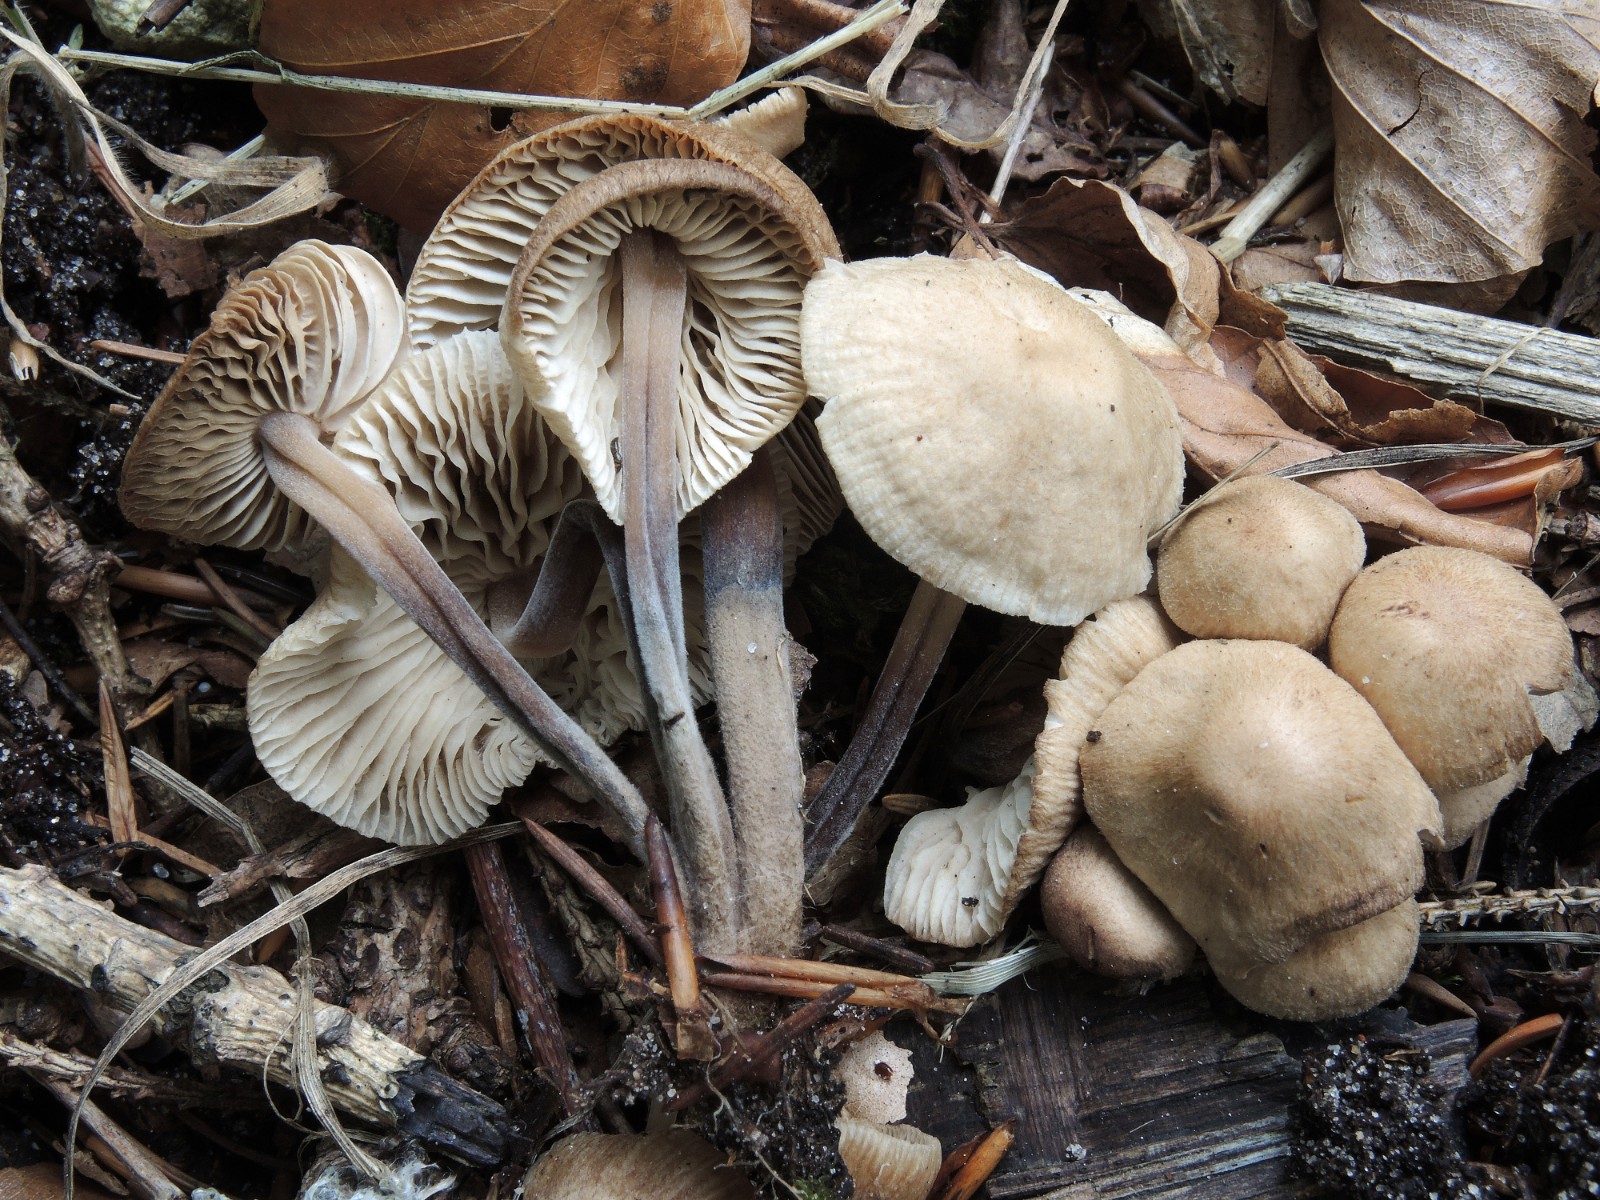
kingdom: Fungi
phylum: Basidiomycota
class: Agaricomycetes
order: Agaricales
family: Omphalotaceae
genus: Gymnopus
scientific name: Gymnopus inodorus
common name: lugtløs fladhat
